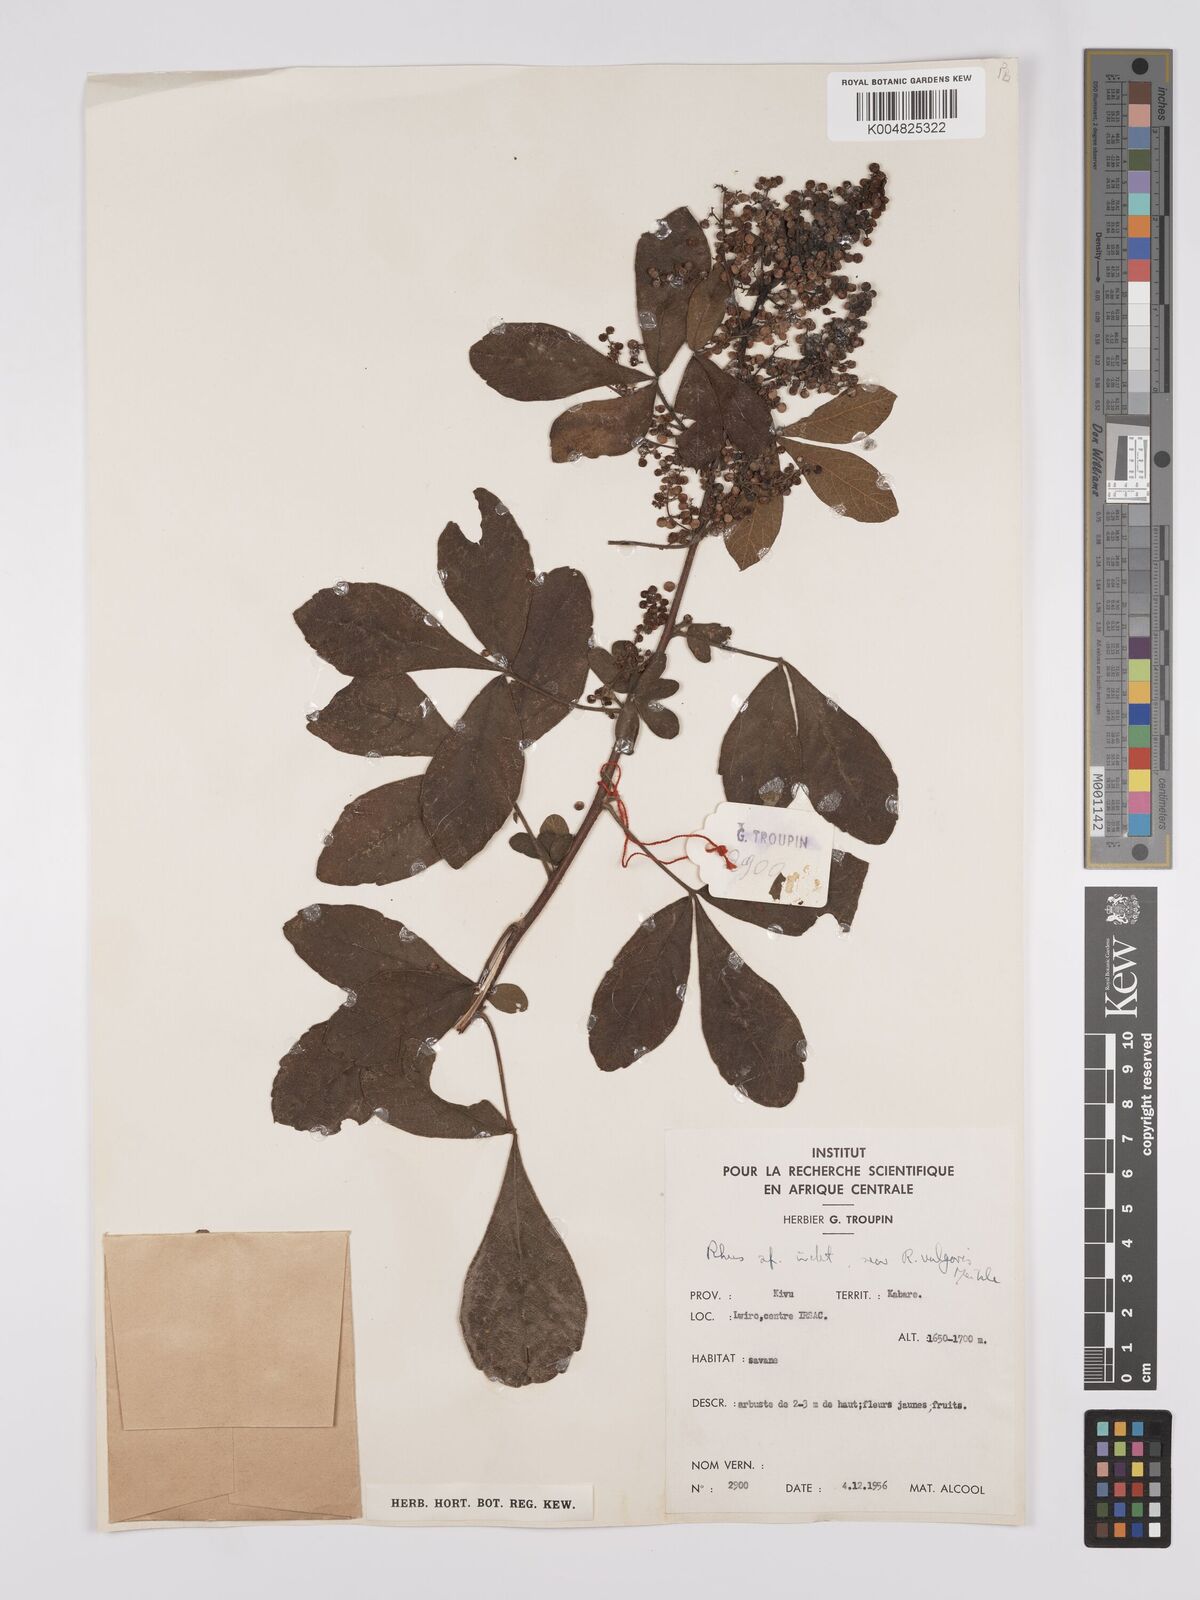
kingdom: Plantae
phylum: Tracheophyta
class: Magnoliopsida
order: Sapindales
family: Anacardiaceae
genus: Rhus
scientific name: Rhus
